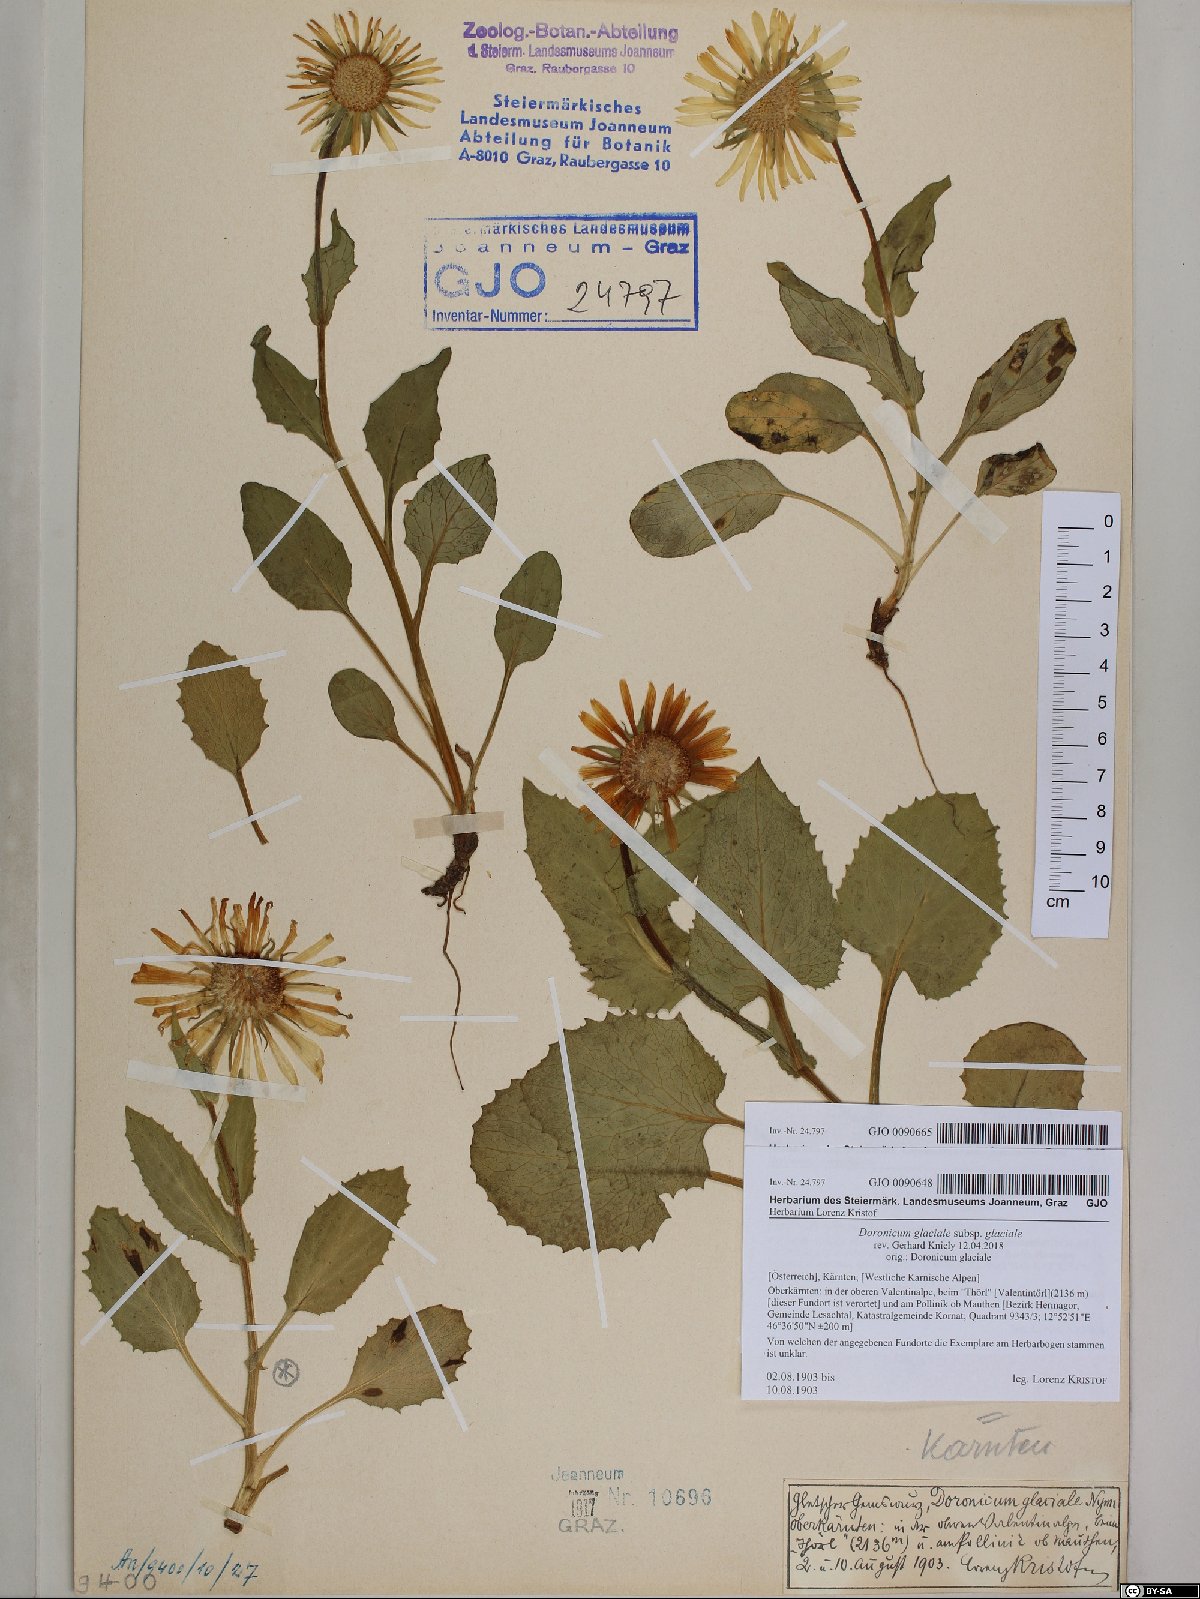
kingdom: Plantae
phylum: Tracheophyta
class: Magnoliopsida
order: Asterales
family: Asteraceae
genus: Doronicum
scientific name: Doronicum glaciale
